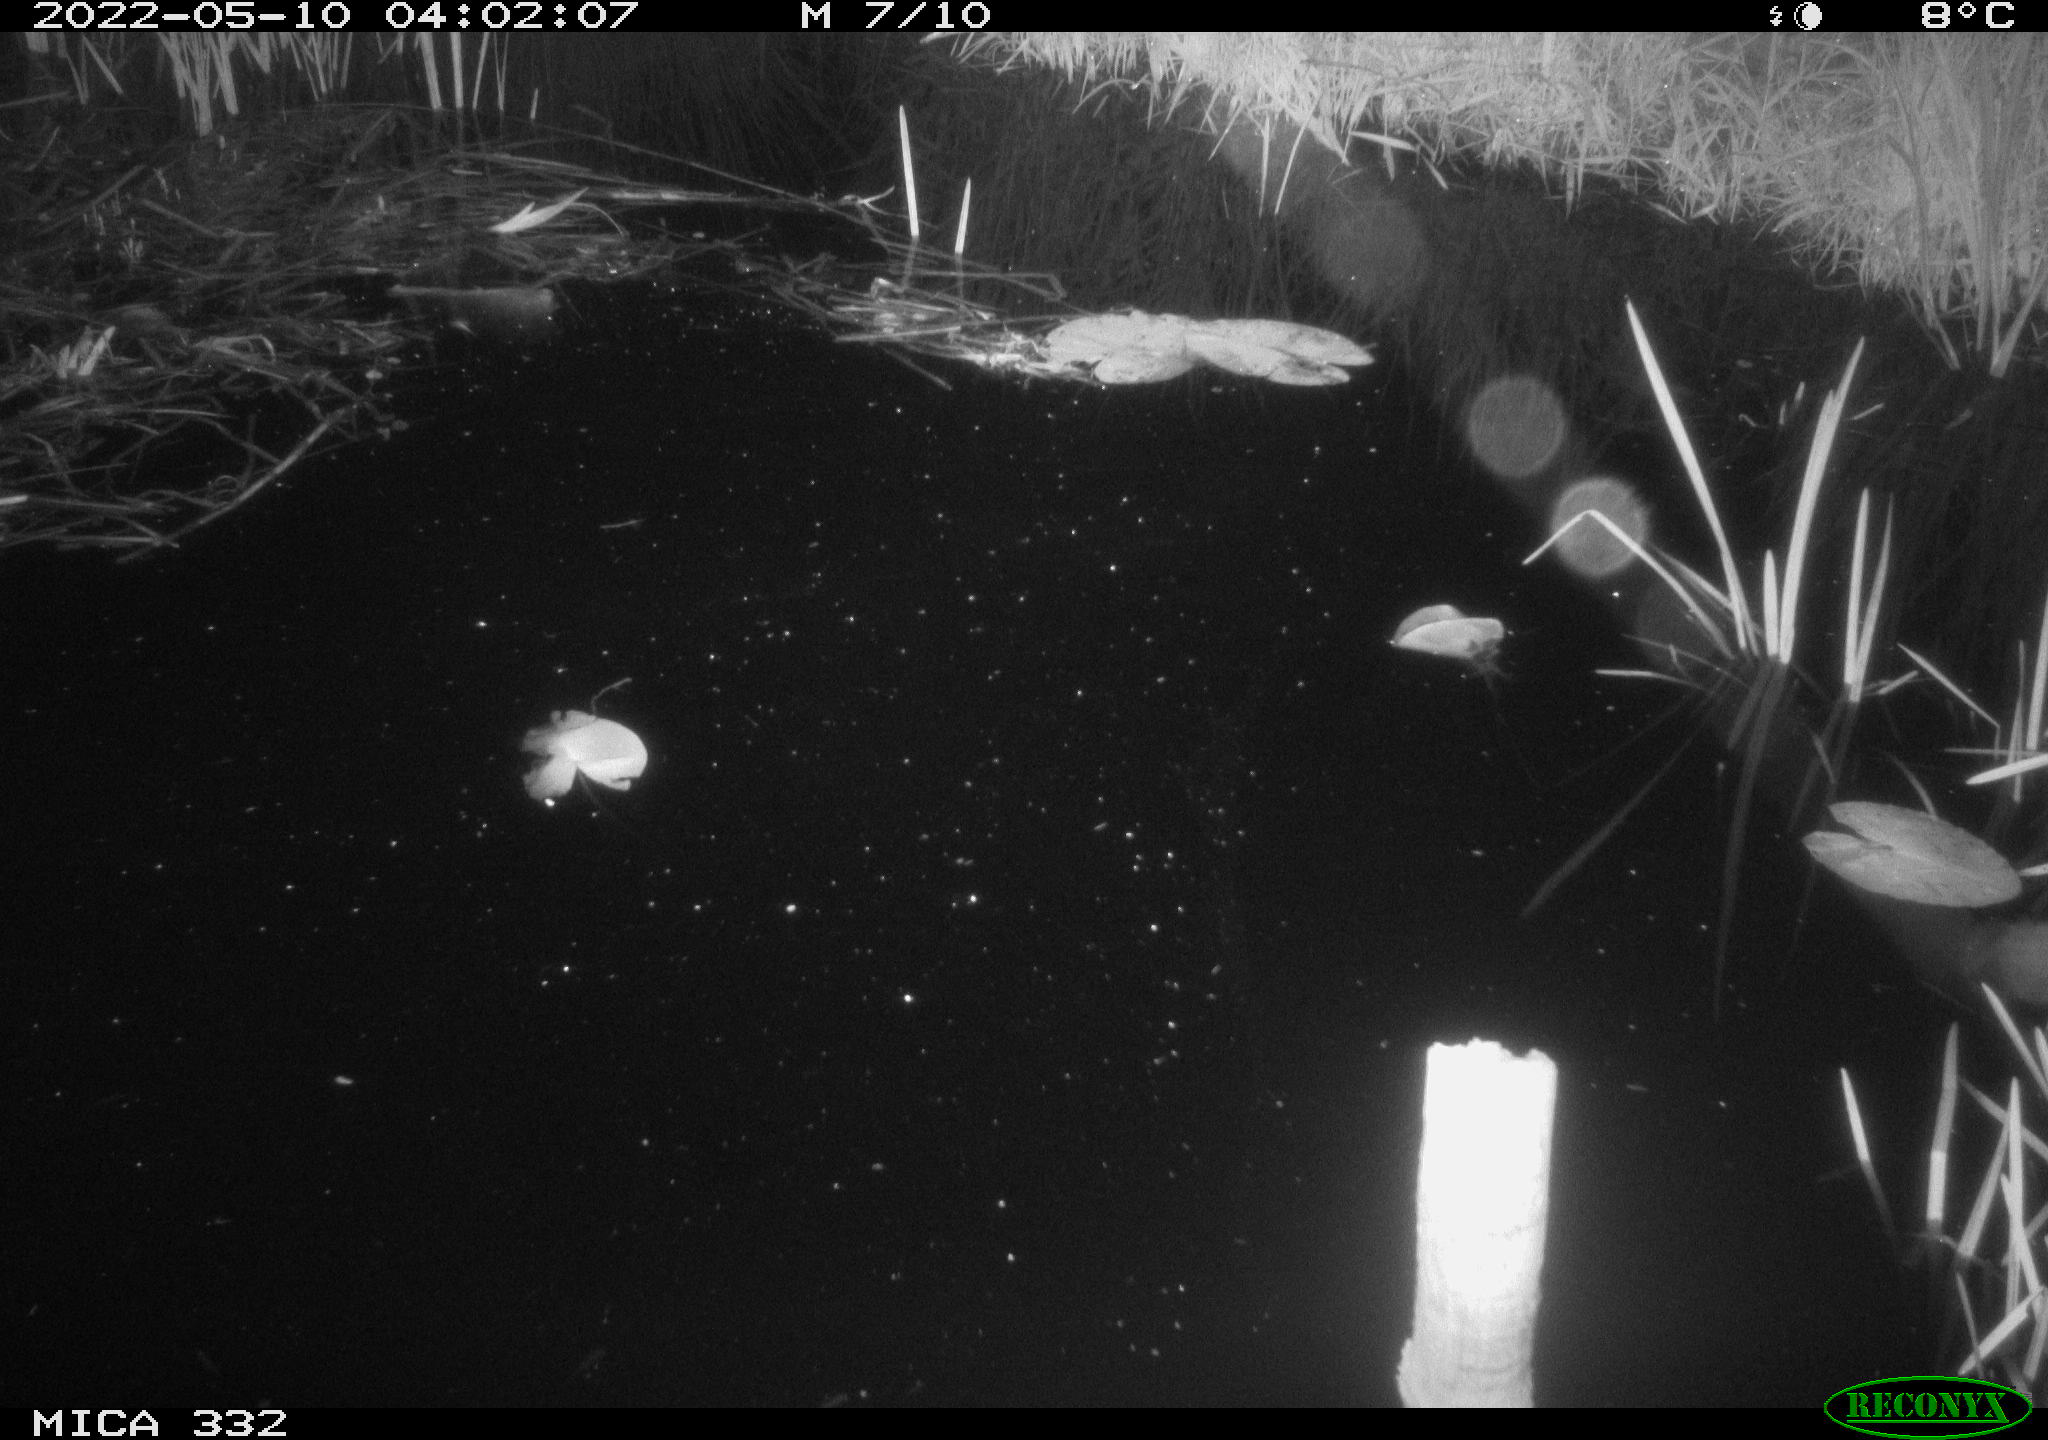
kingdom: Animalia
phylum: Chordata
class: Aves
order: Anseriformes
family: Anatidae
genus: Anas
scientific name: Anas platyrhynchos
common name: Mallard
